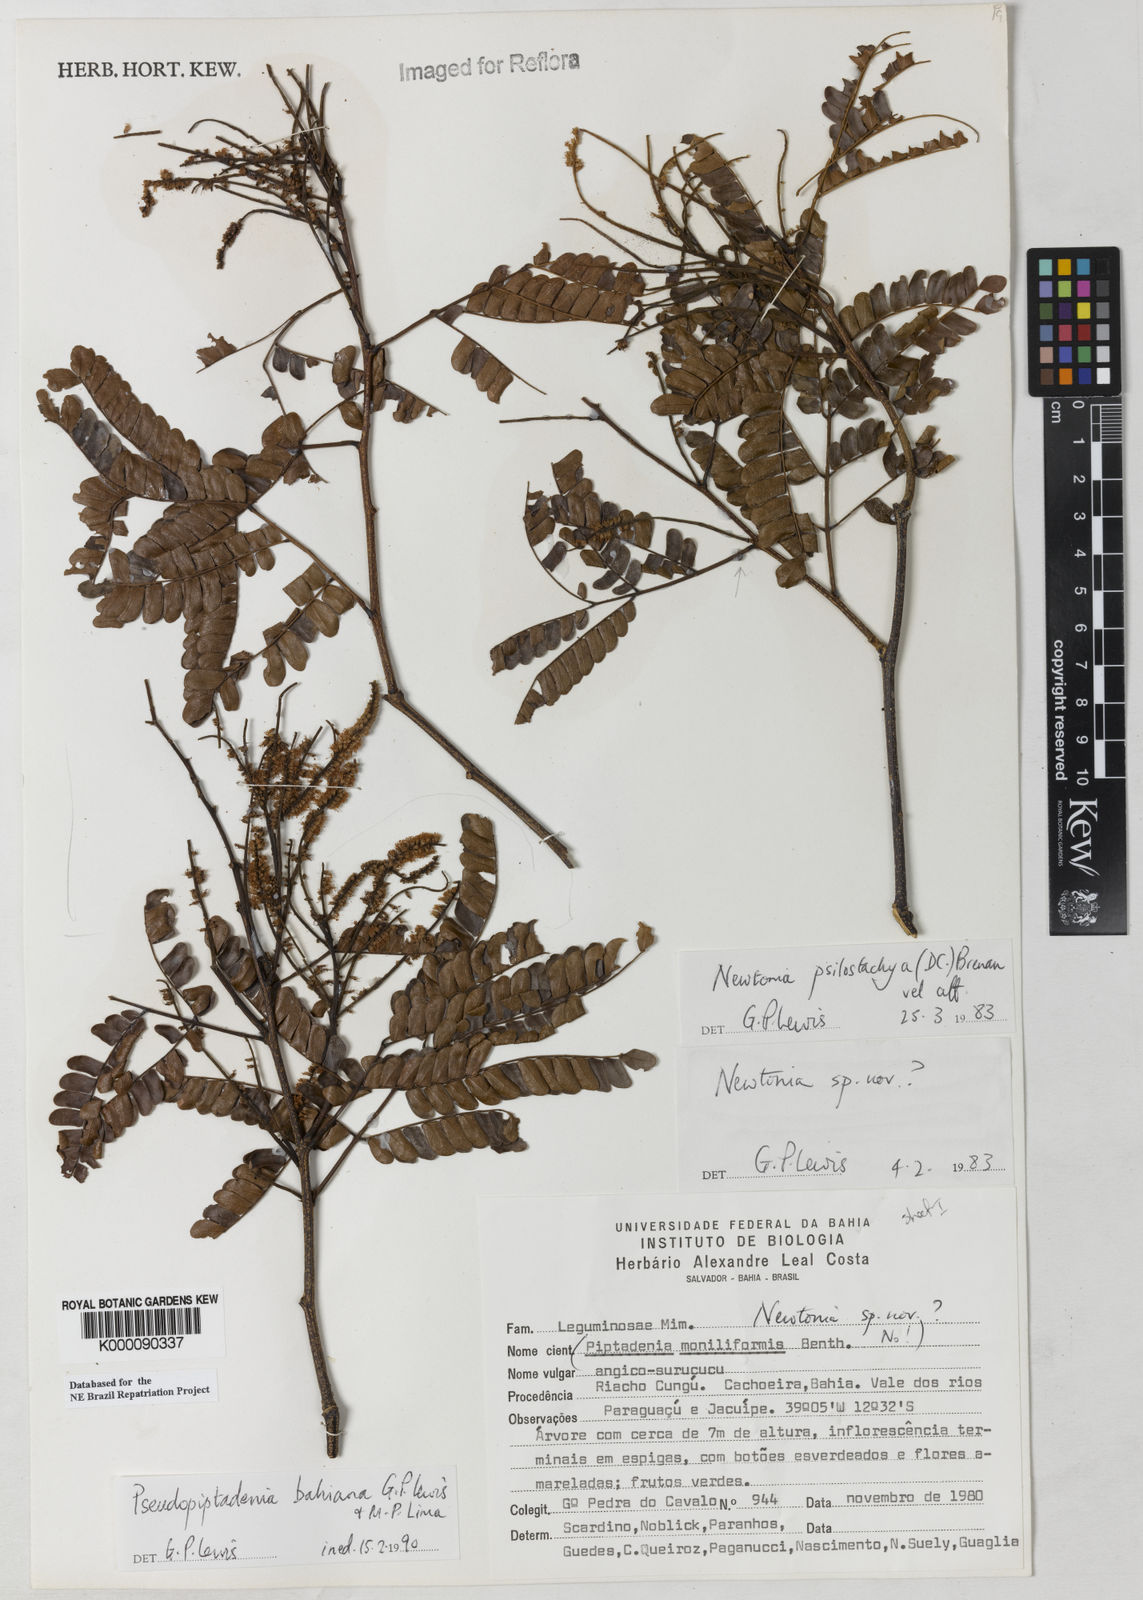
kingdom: Plantae
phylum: Tracheophyta
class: Magnoliopsida
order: Fabales
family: Fabaceae
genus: Pseudopiptadenia
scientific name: Pseudopiptadenia bahiana
